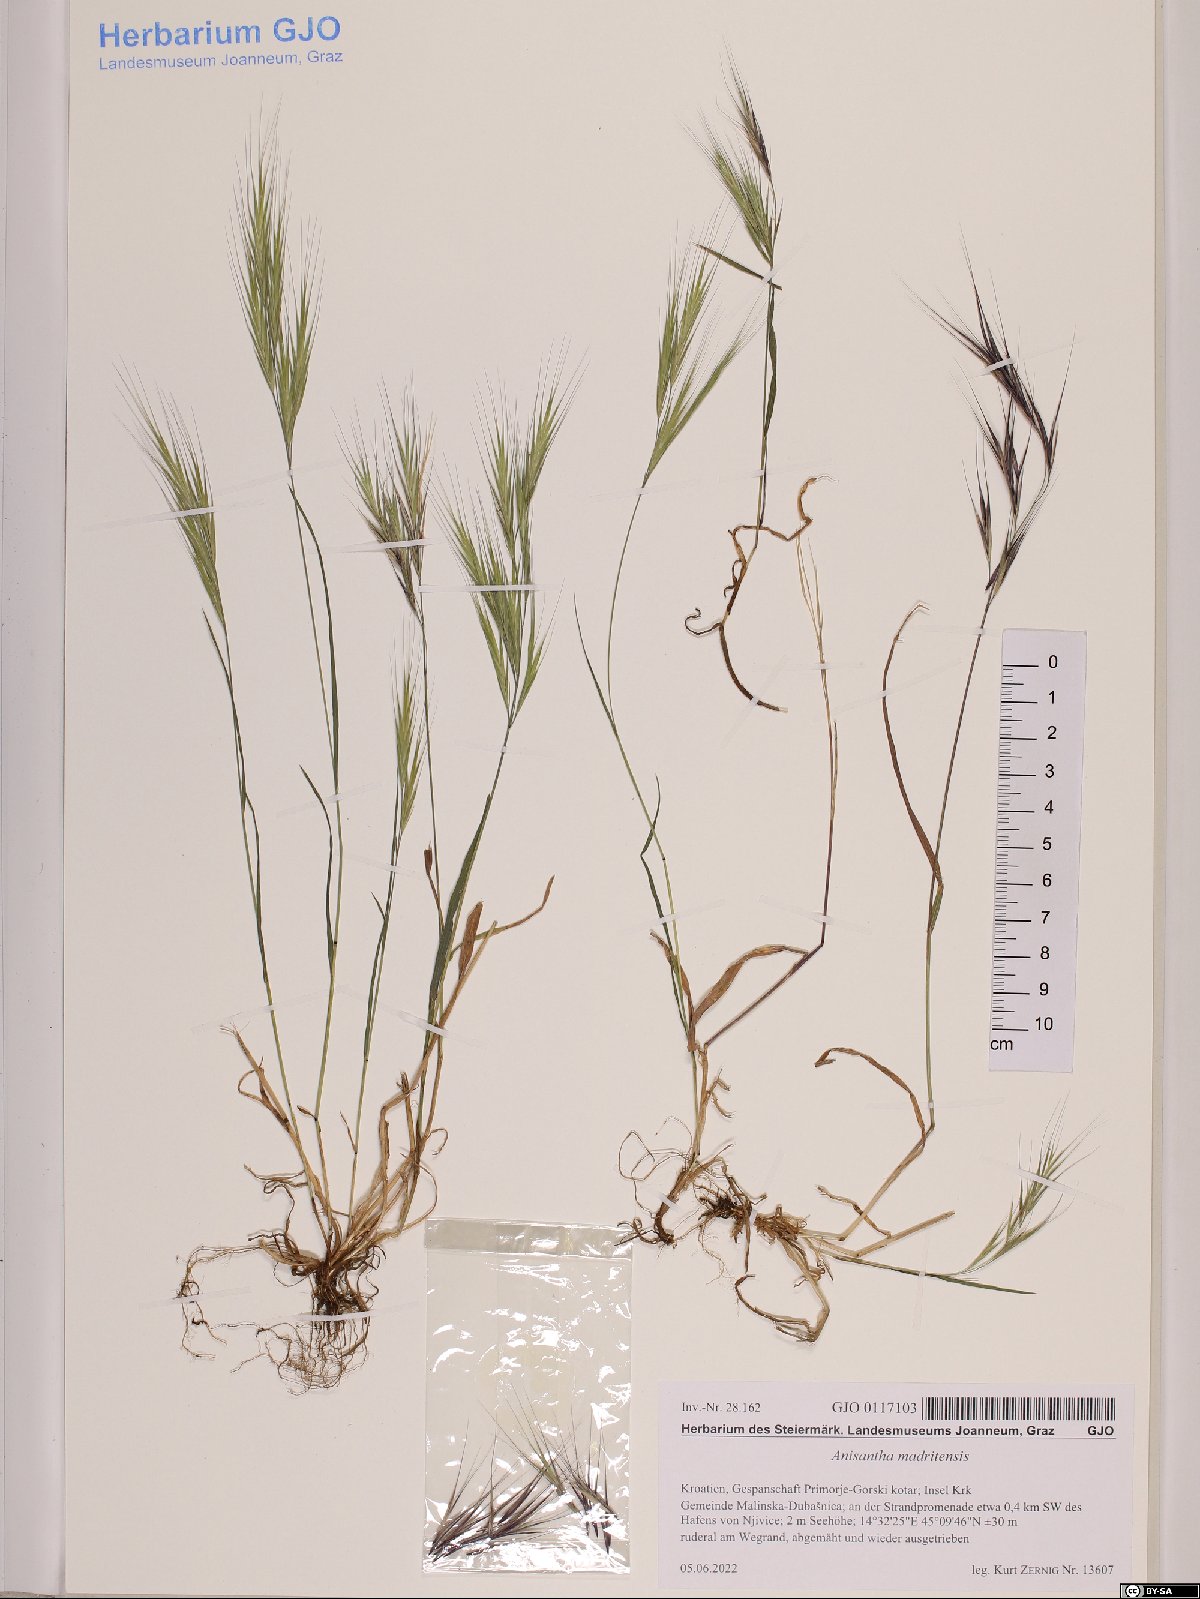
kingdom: Plantae
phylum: Tracheophyta
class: Liliopsida
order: Poales
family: Poaceae
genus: Bromus
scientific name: Bromus madritensis
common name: Compact brome
